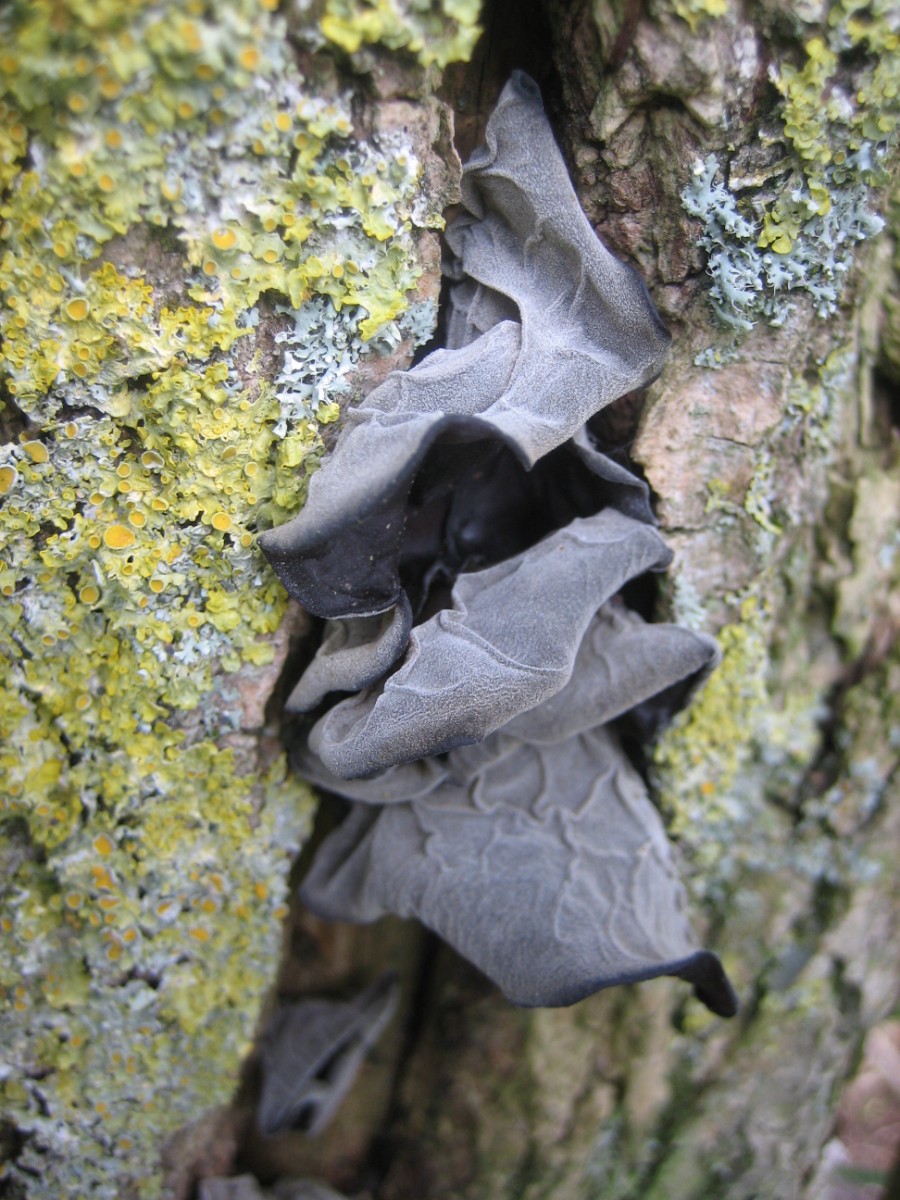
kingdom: Fungi
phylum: Basidiomycota
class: Agaricomycetes
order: Auriculariales
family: Auriculariaceae
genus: Auricularia
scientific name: Auricularia auricula-judae
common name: almindelig judasøre
